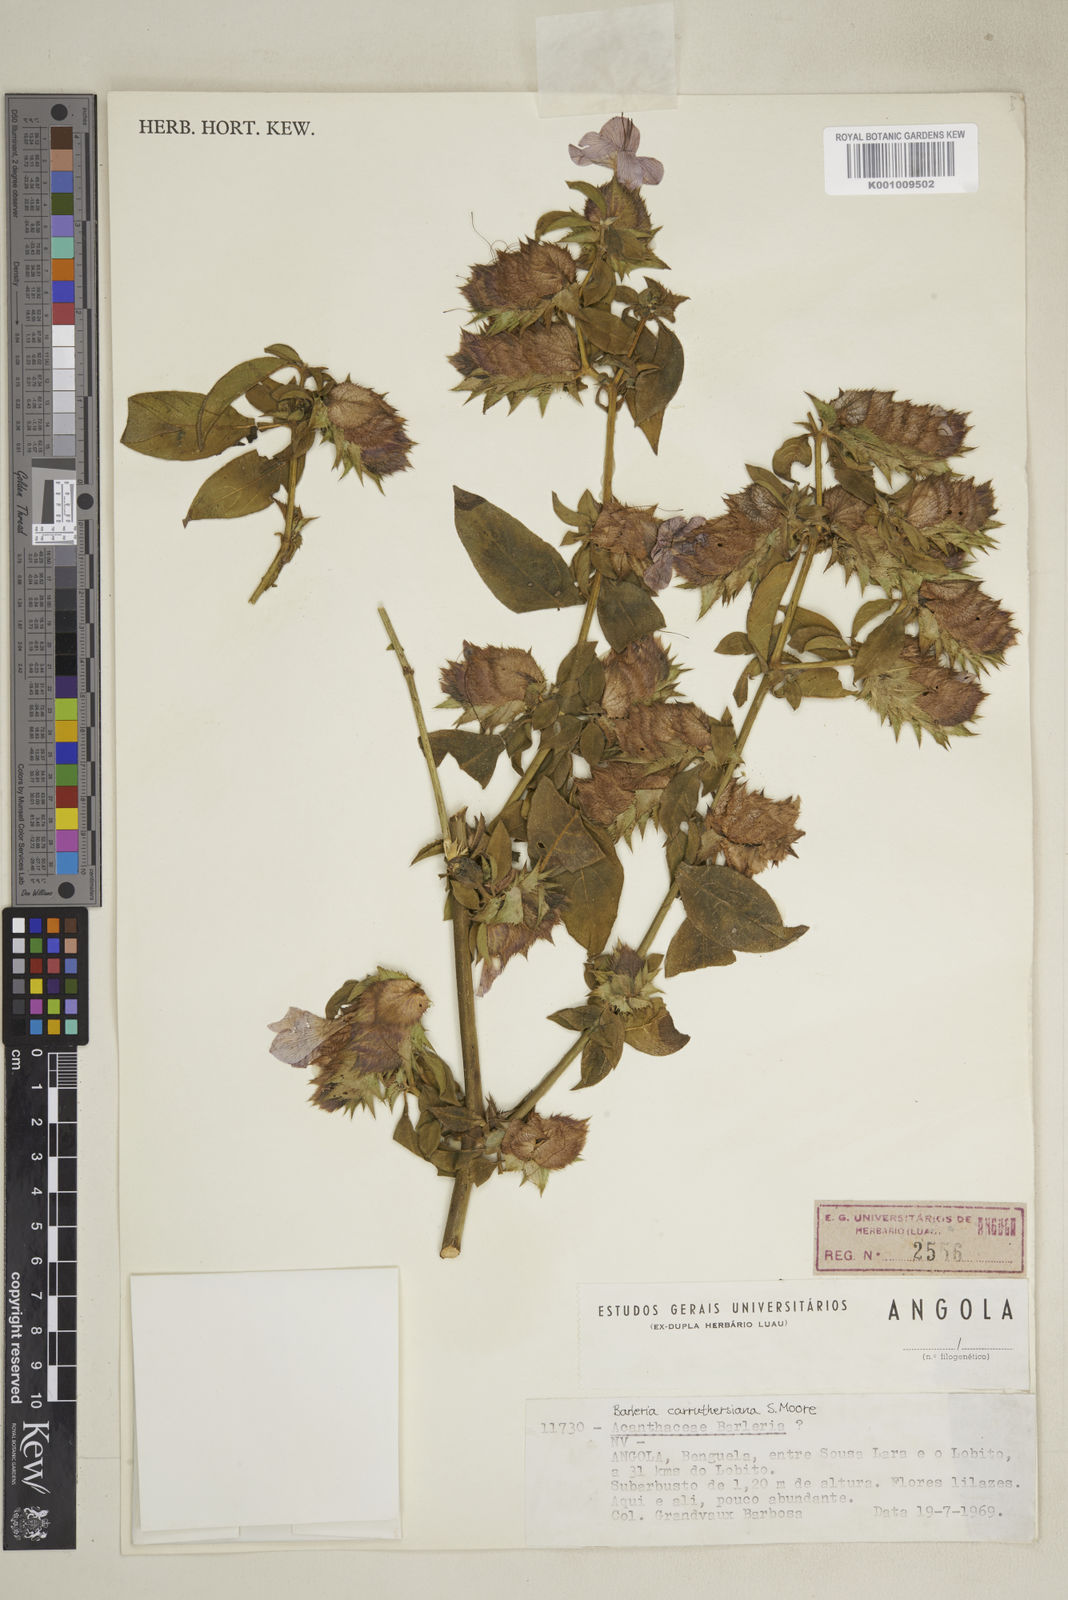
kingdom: Plantae
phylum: Tracheophyta
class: Magnoliopsida
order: Lamiales
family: Acanthaceae
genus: Barleria
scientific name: Barleria carruthersiana
